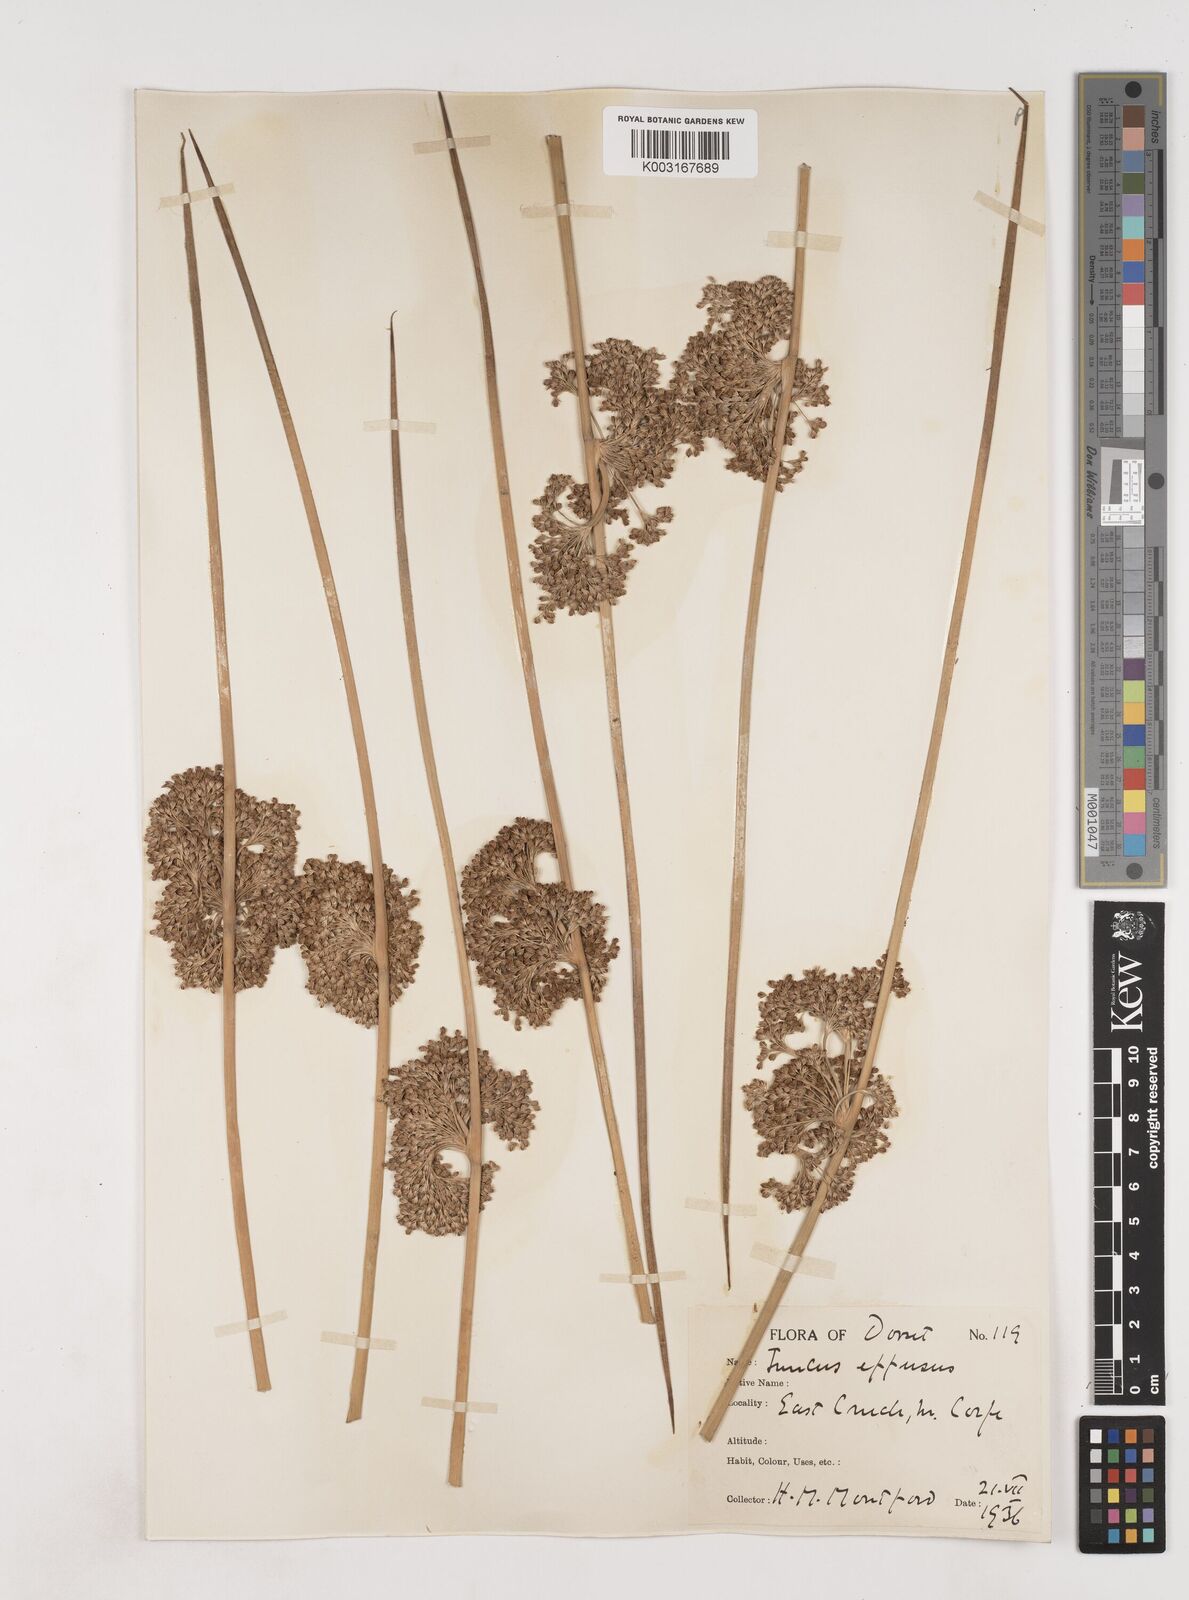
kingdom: Plantae
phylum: Tracheophyta
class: Liliopsida
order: Poales
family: Juncaceae
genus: Juncus
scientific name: Juncus effusus
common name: Soft rush
